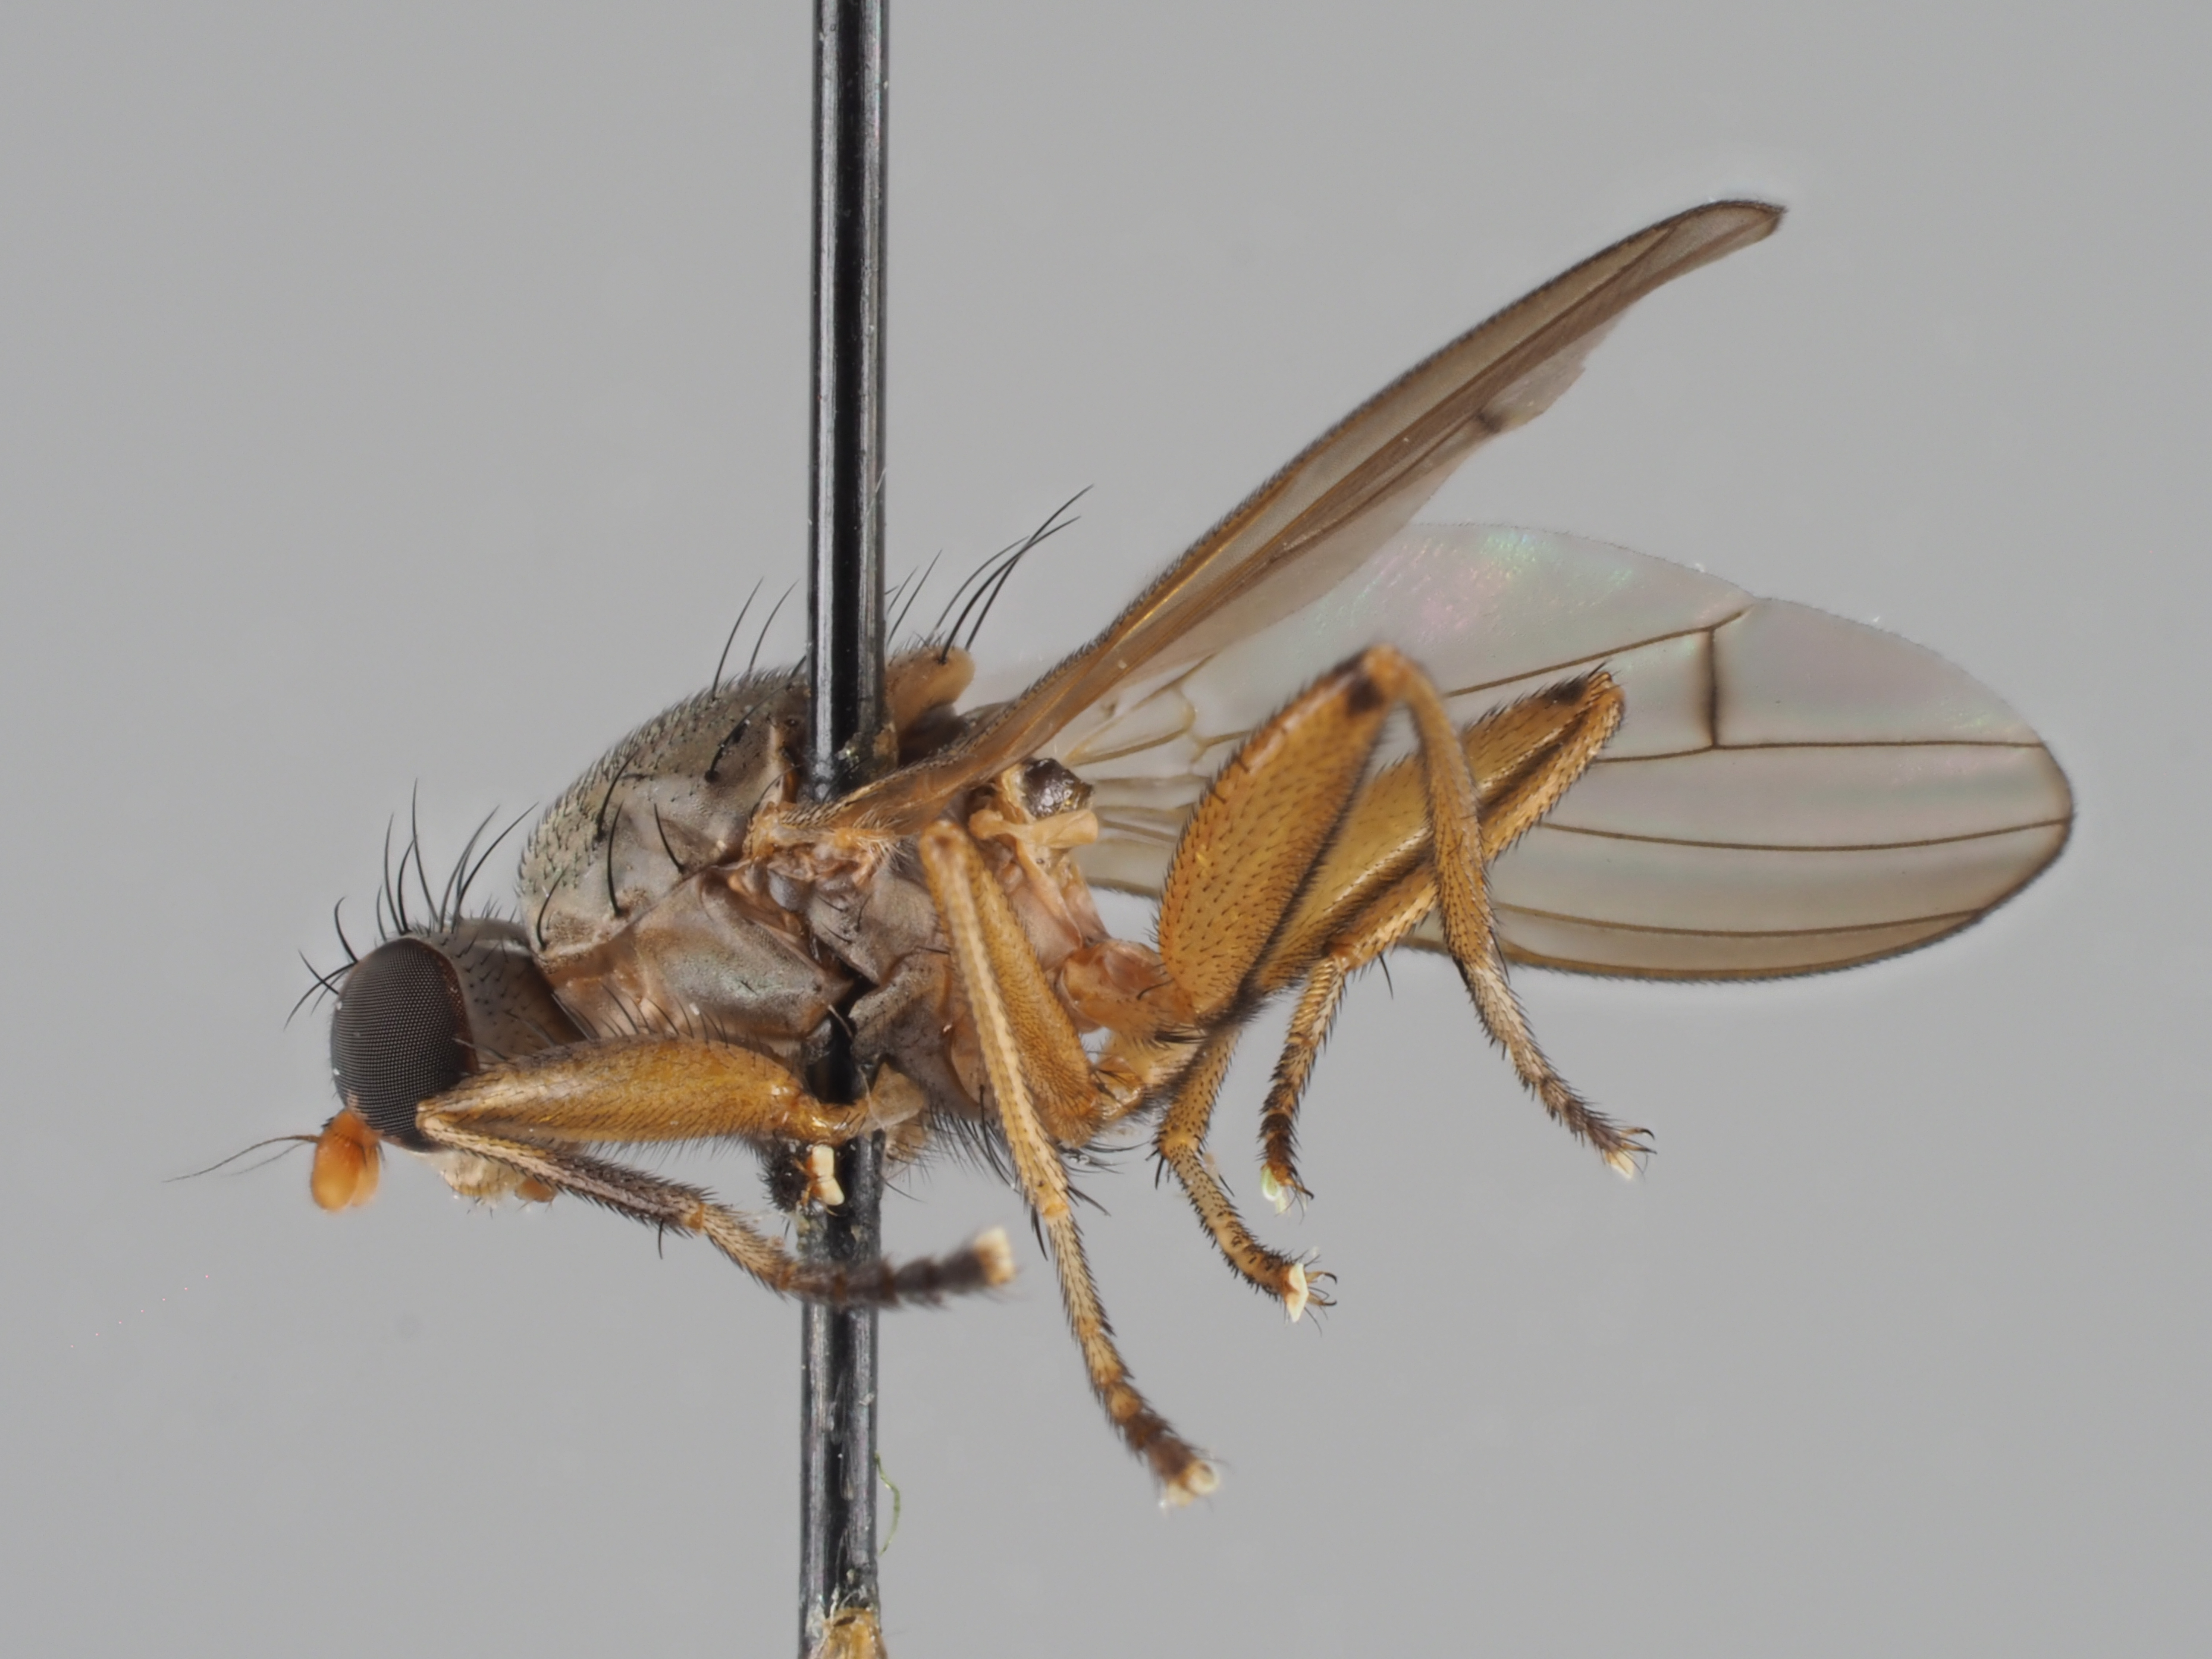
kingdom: Animalia
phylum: Arthropoda
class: Insecta
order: Diptera
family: Sciomyzidae
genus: Pherbellia
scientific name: Pherbellia rozkosnyi
